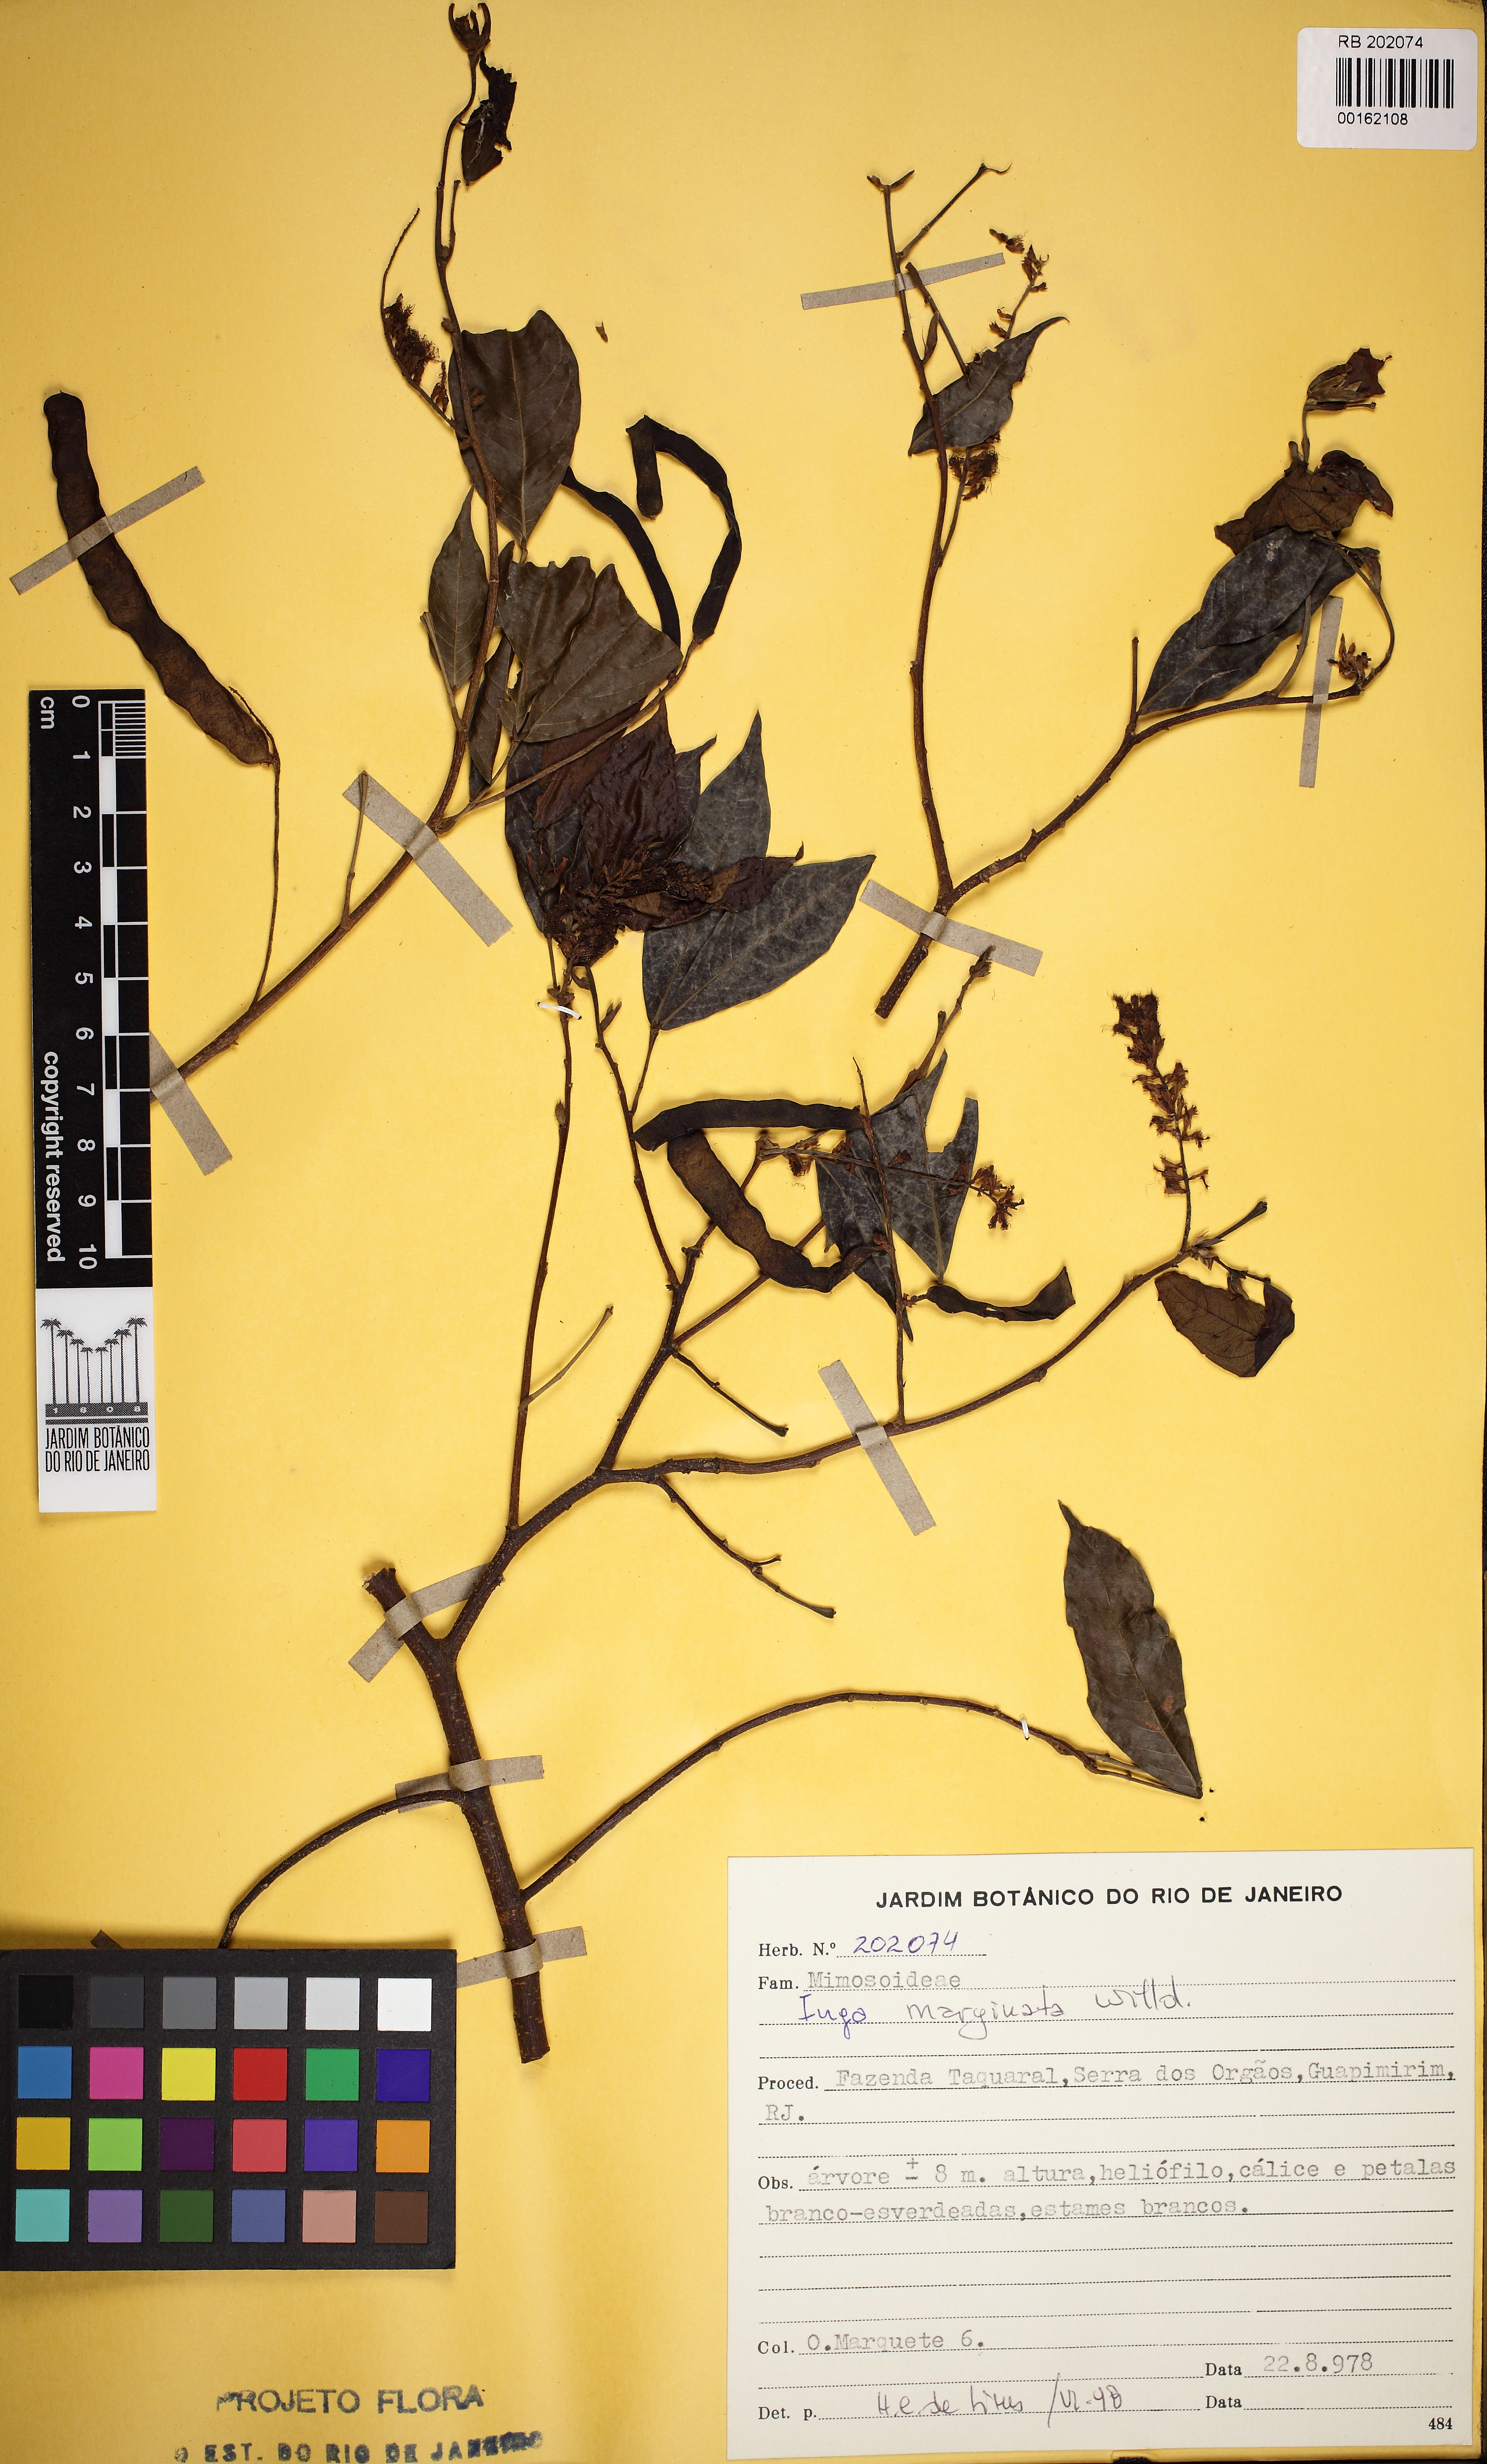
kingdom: Plantae
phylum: Tracheophyta
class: Magnoliopsida
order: Fabales
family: Fabaceae
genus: Inga
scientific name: Inga marginata
